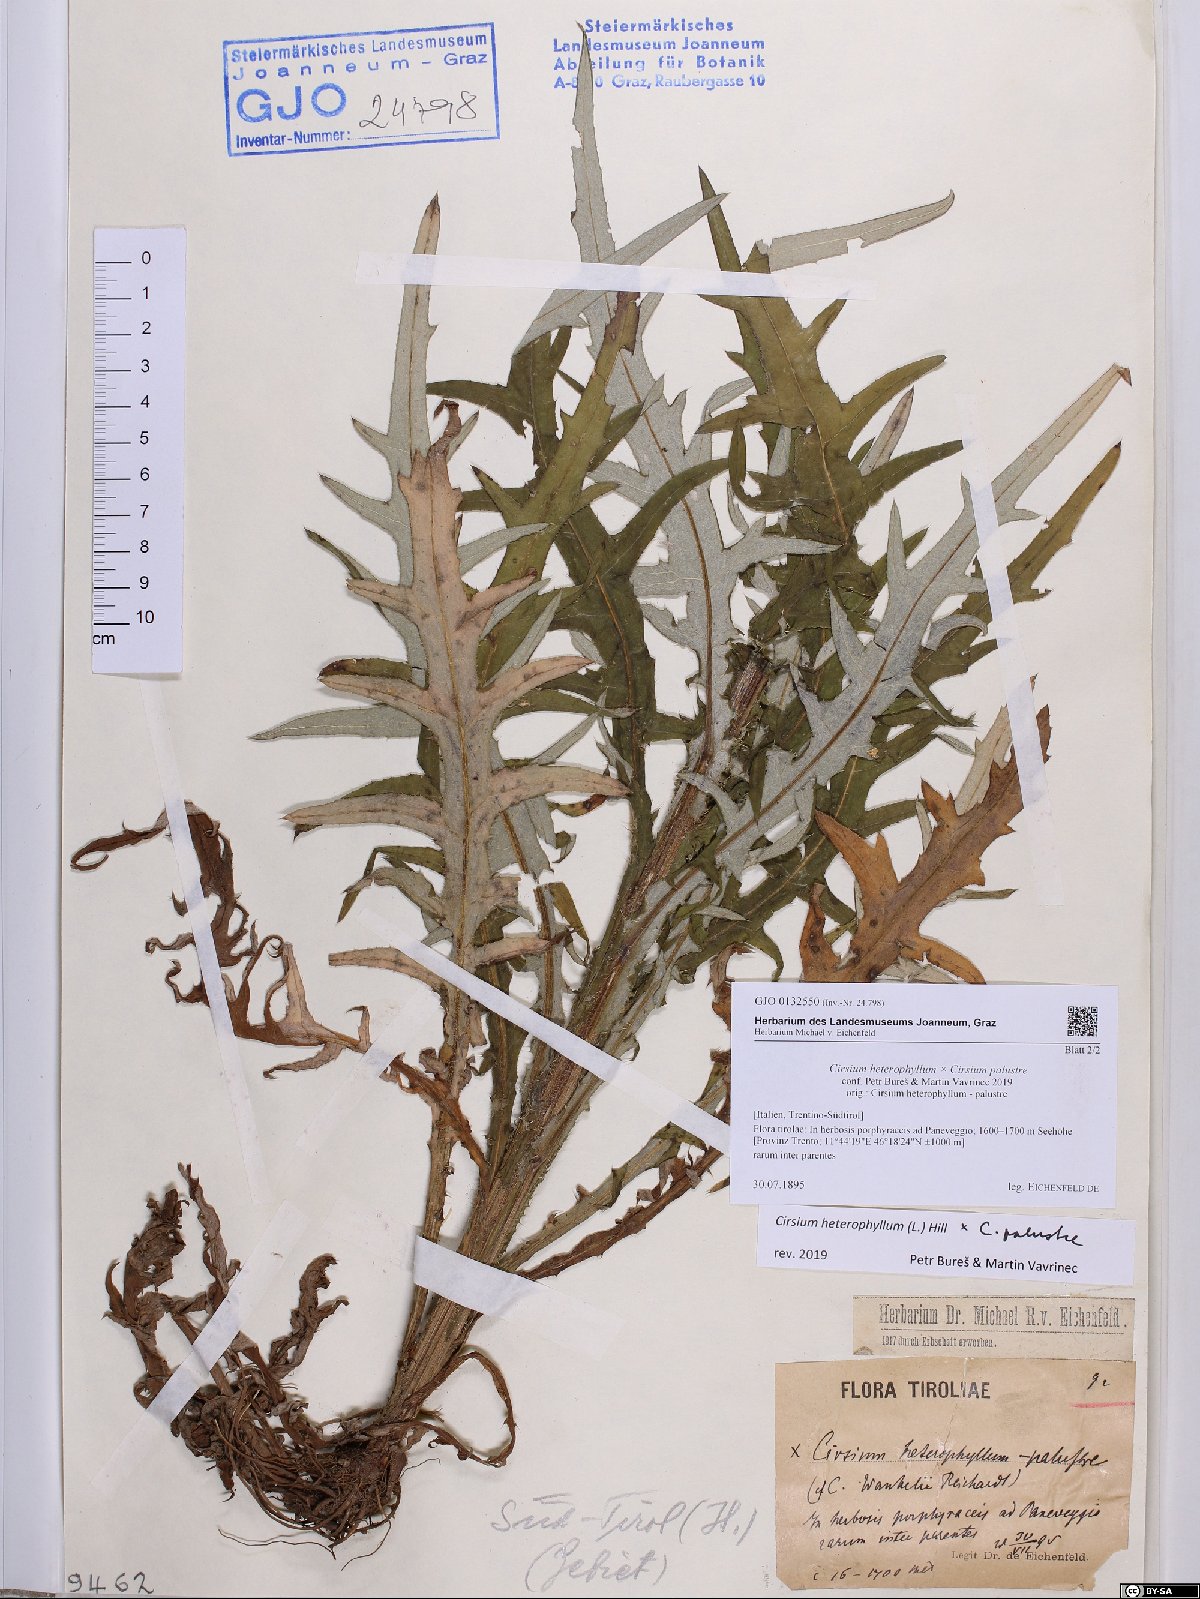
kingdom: Plantae
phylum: Tracheophyta
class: Magnoliopsida
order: Asterales
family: Asteraceae
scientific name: Asteraceae
